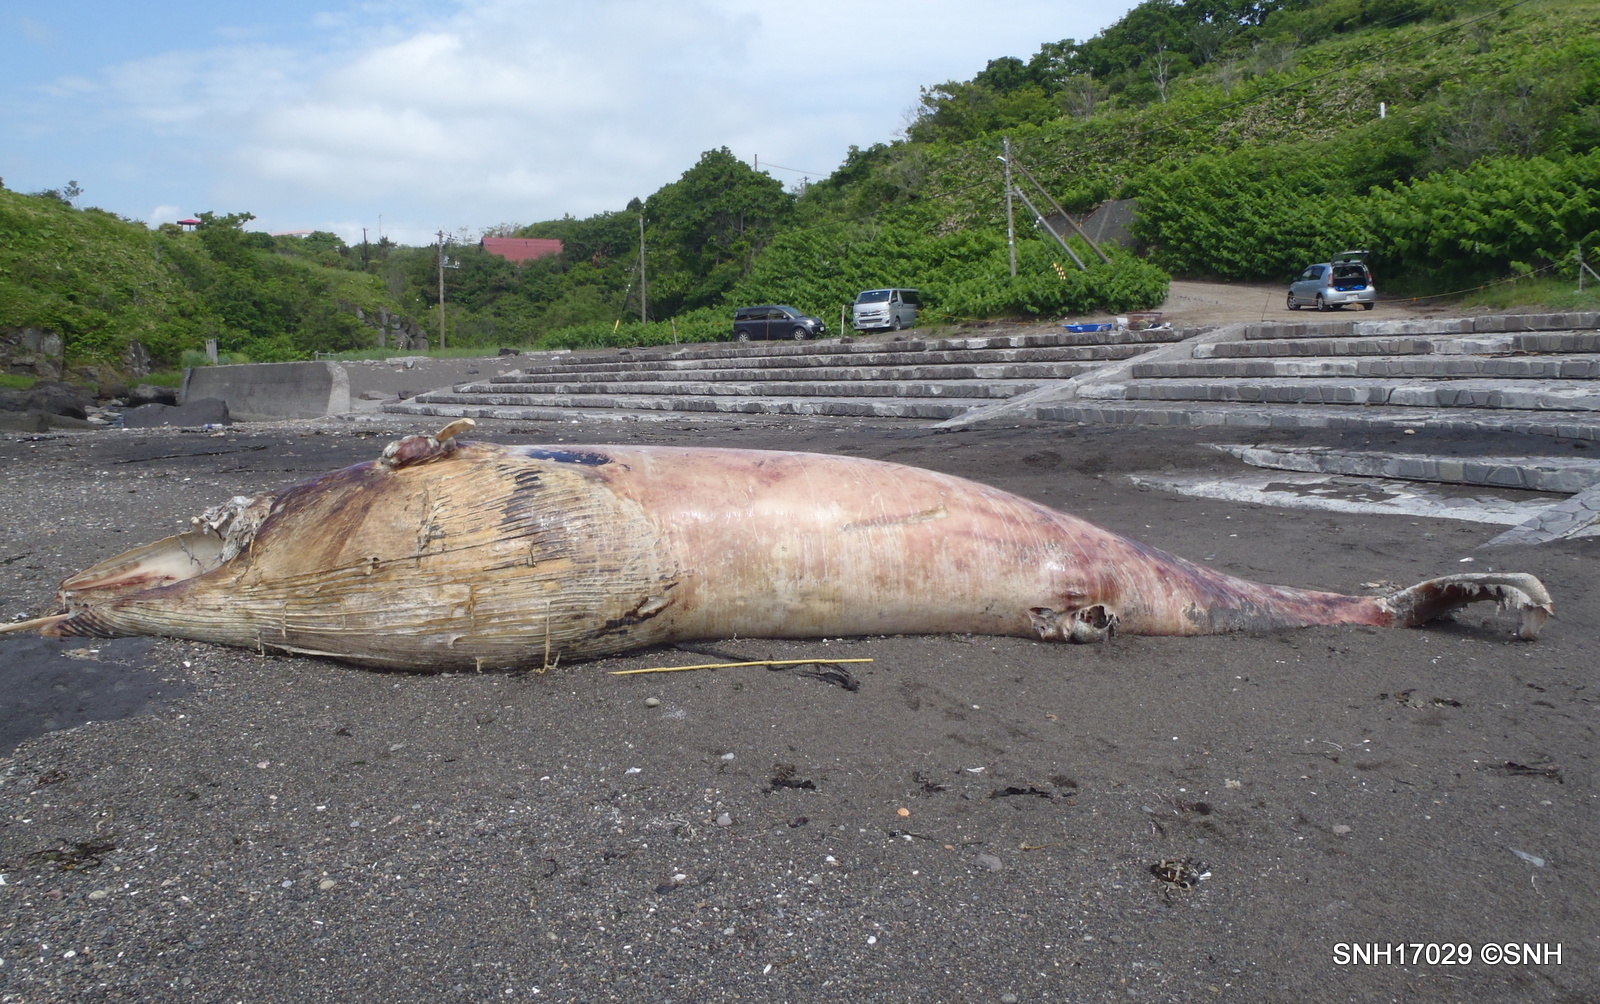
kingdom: Animalia
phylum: Chordata
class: Mammalia
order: Cetacea
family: Balaenopteridae
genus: Balaenoptera
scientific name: Balaenoptera
